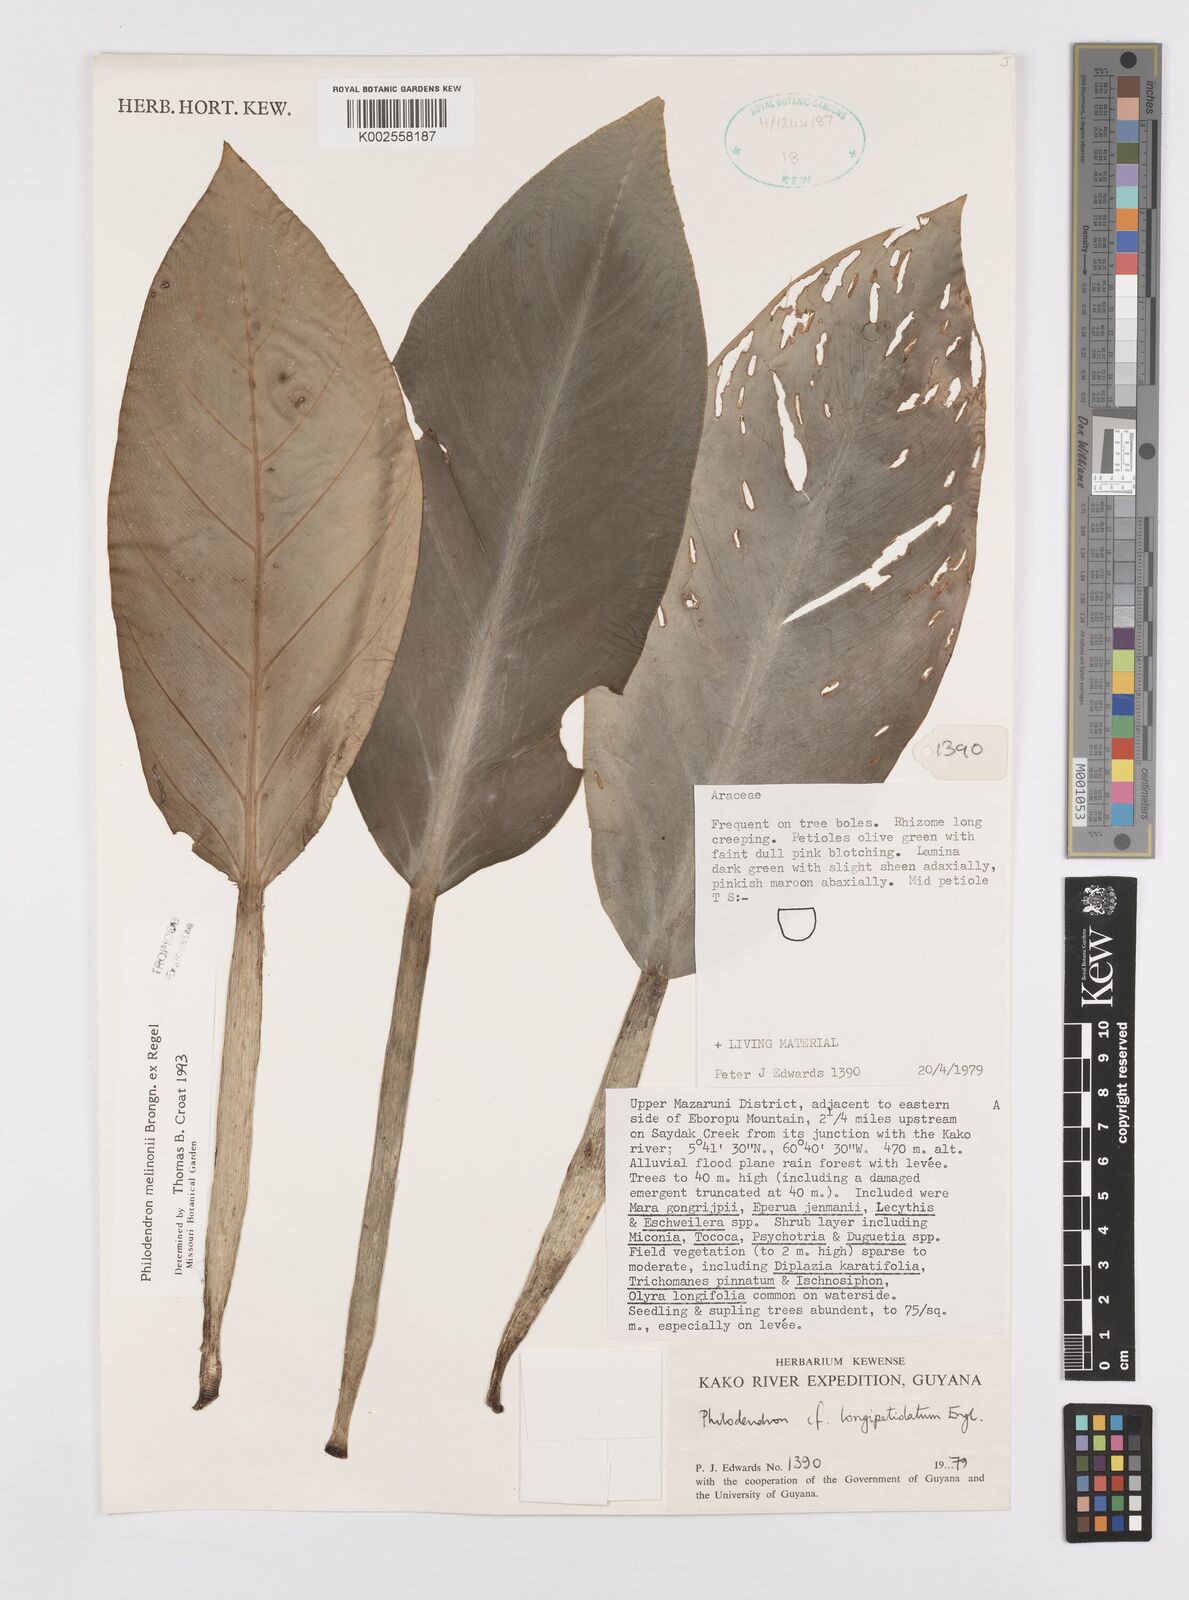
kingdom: Plantae
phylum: Tracheophyta
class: Liliopsida
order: Alismatales
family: Araceae
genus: Philodendron
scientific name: Philodendron melinonii
